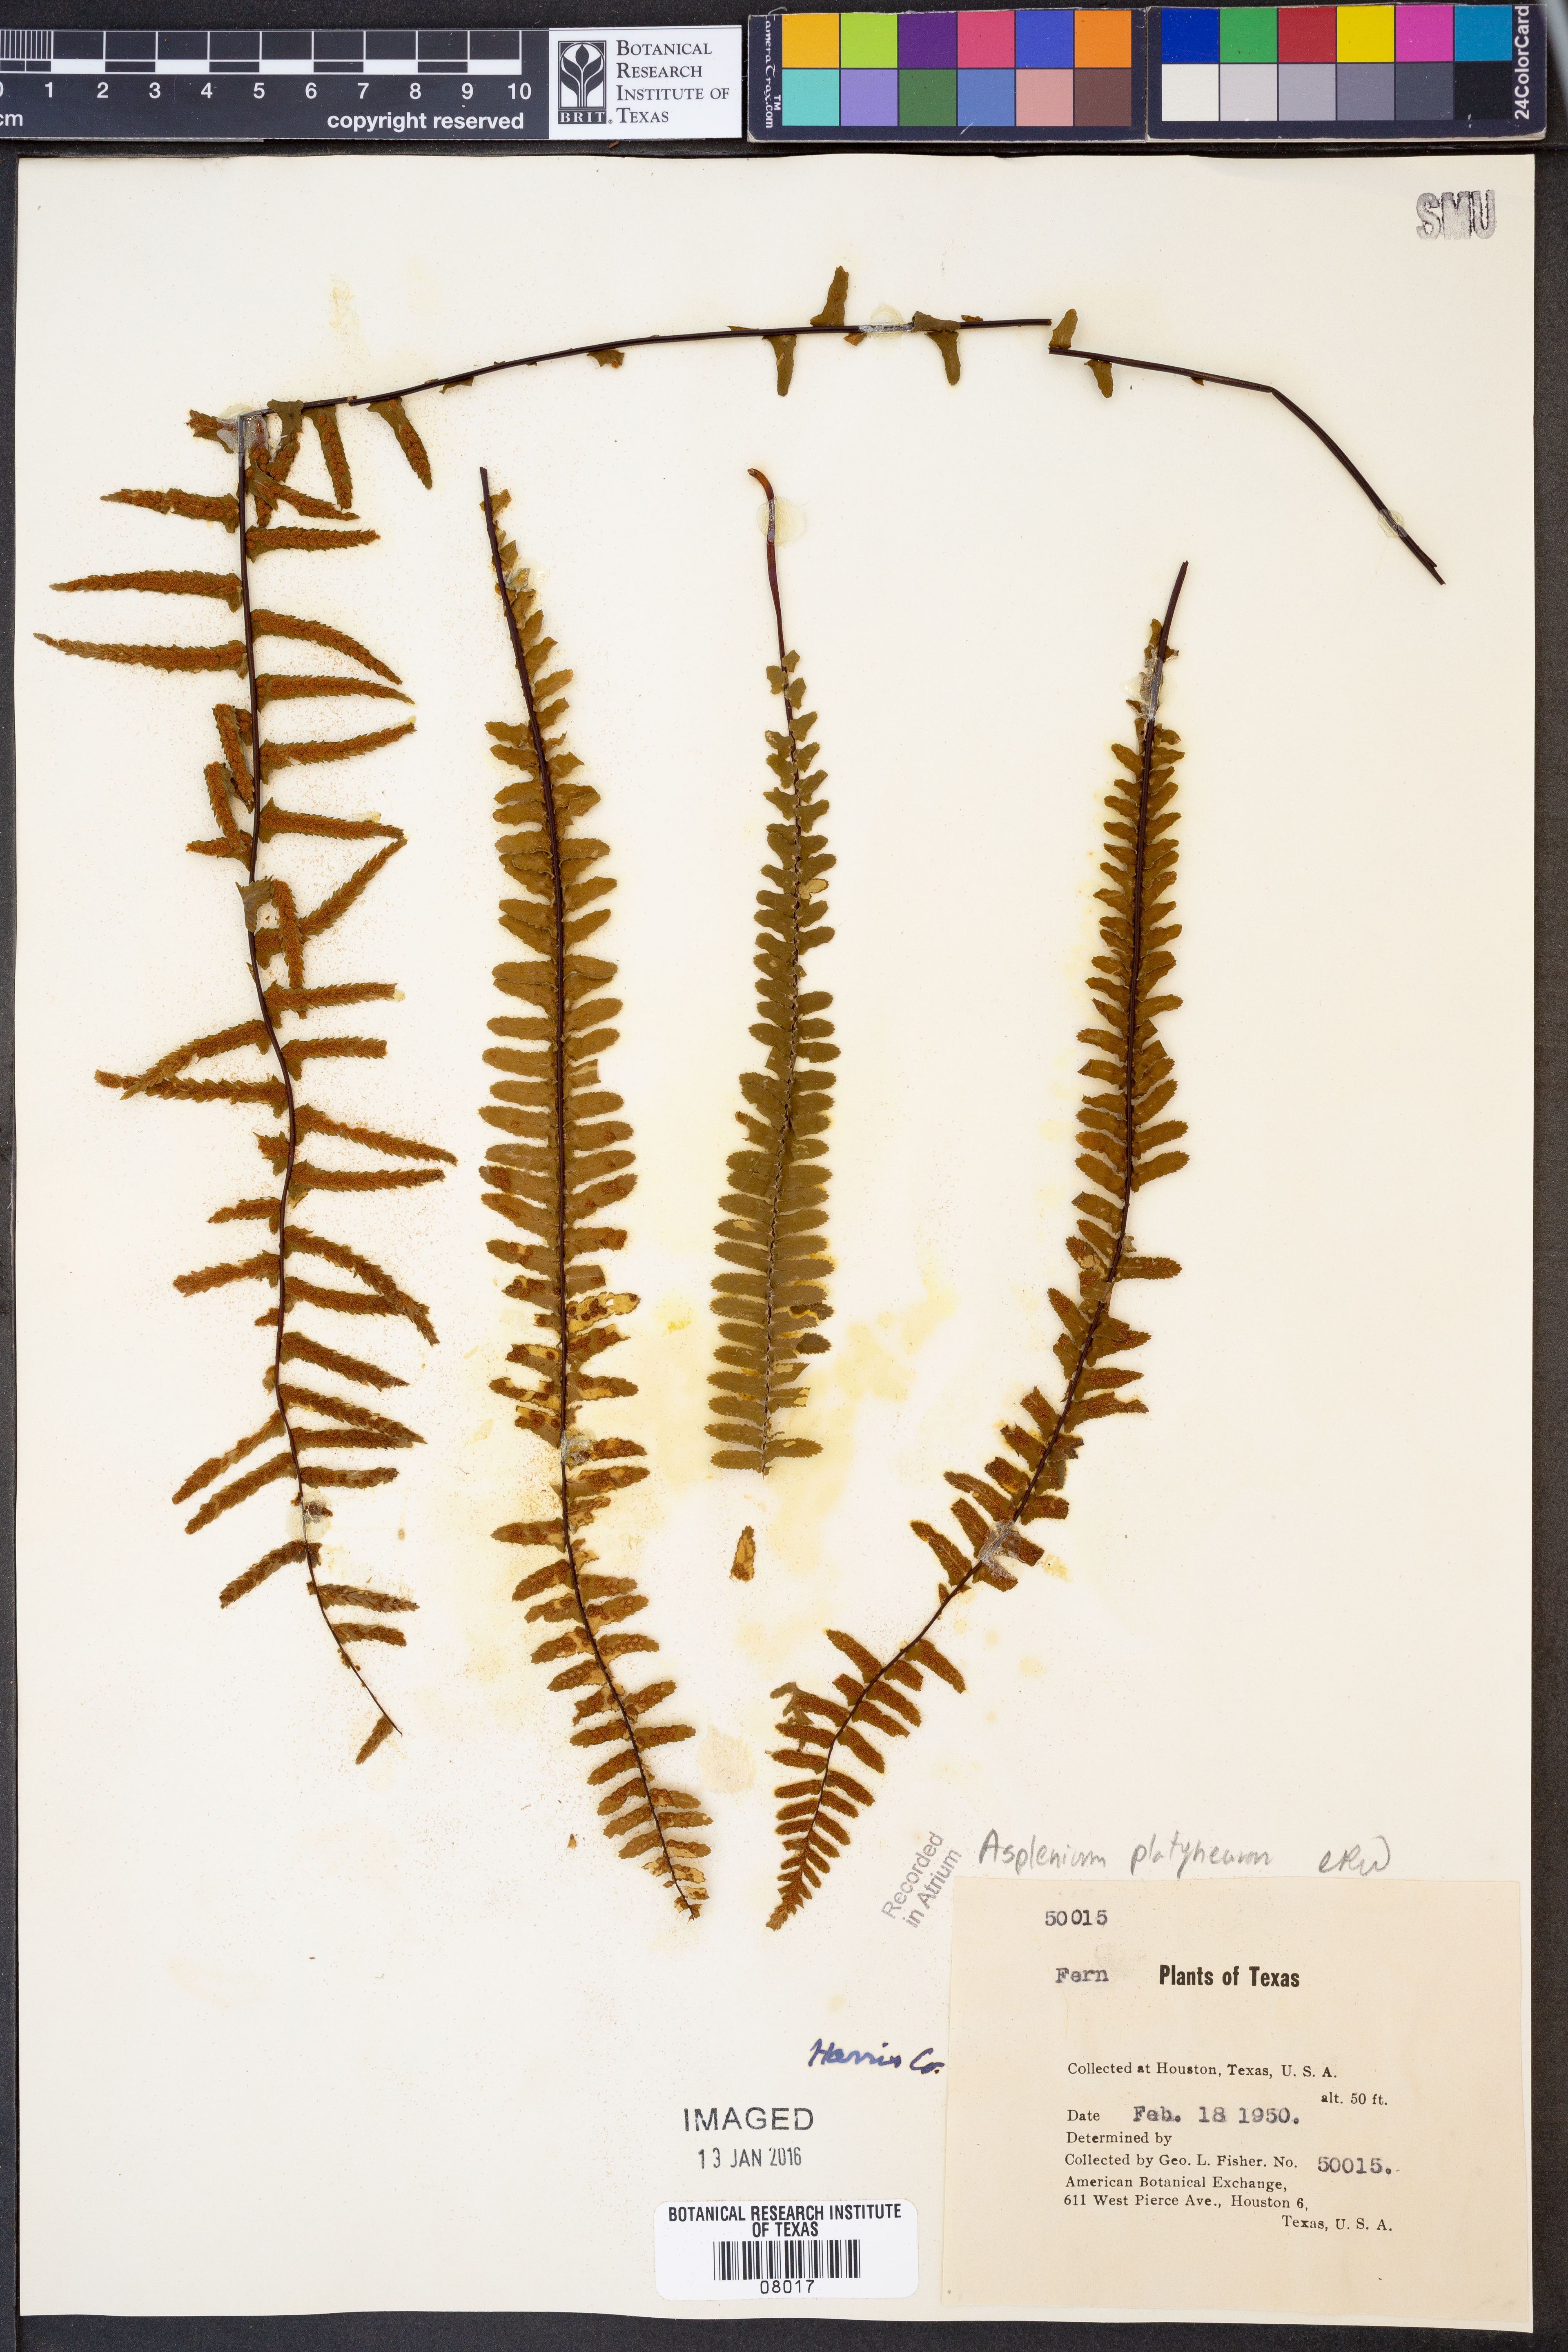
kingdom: Plantae
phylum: Tracheophyta
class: Polypodiopsida
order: Polypodiales
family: Aspleniaceae
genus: Asplenium
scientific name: Asplenium platyneuron
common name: Ebony spleenwort
